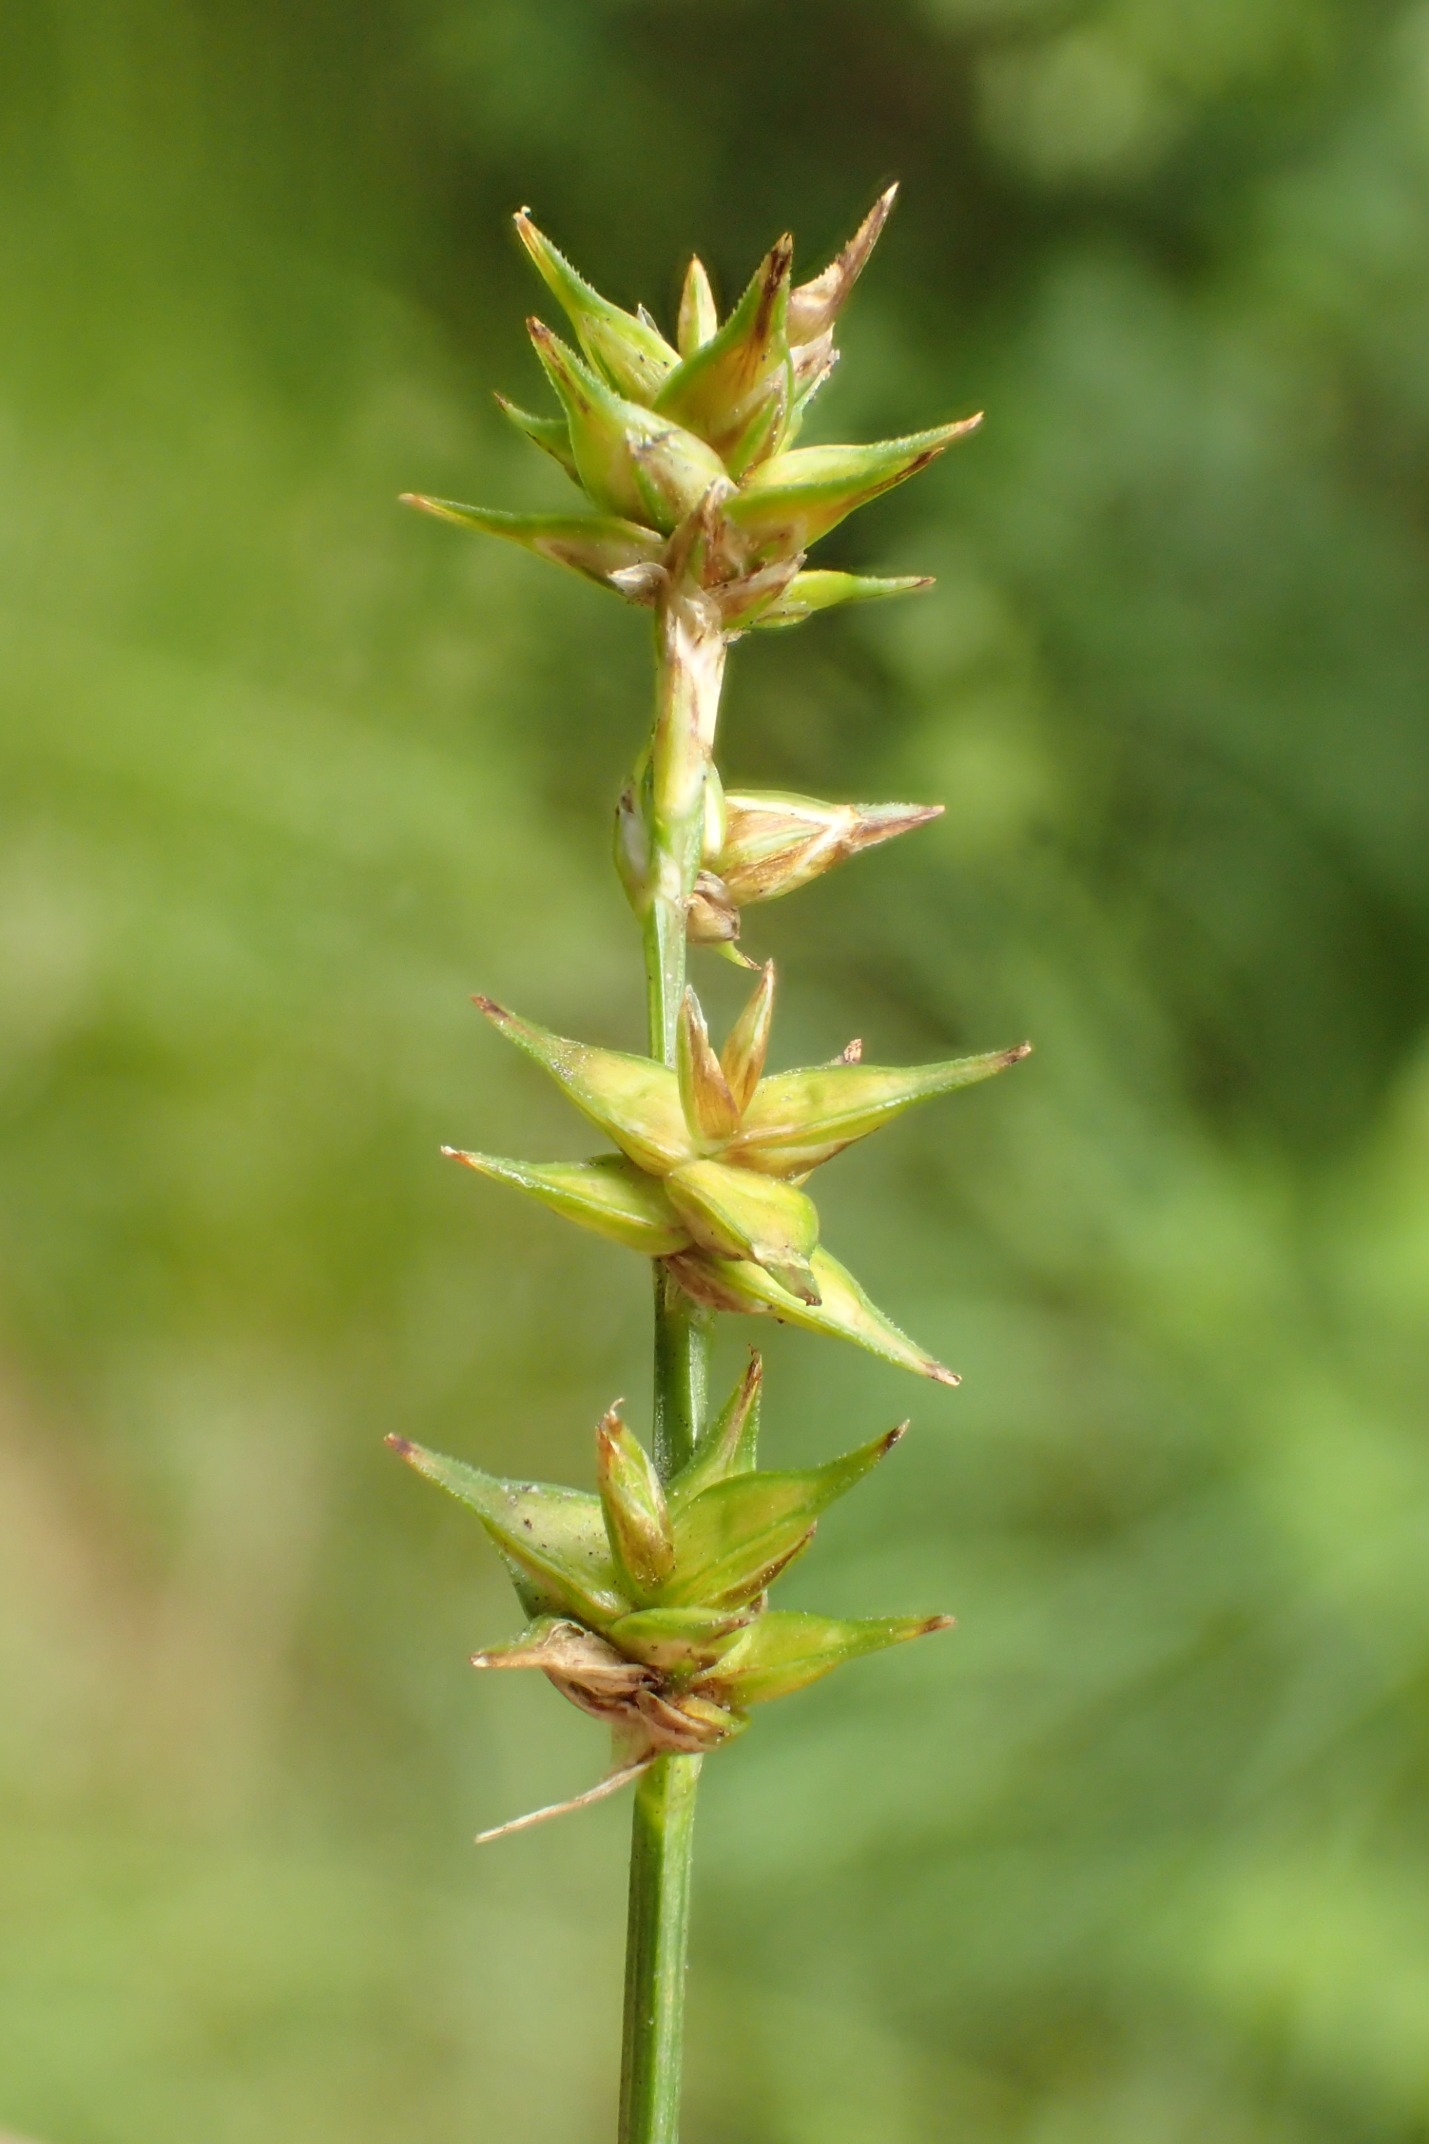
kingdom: Plantae
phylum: Tracheophyta
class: Liliopsida
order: Poales
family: Cyperaceae
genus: Carex
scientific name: Carex echinata
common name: Stjerne-star
